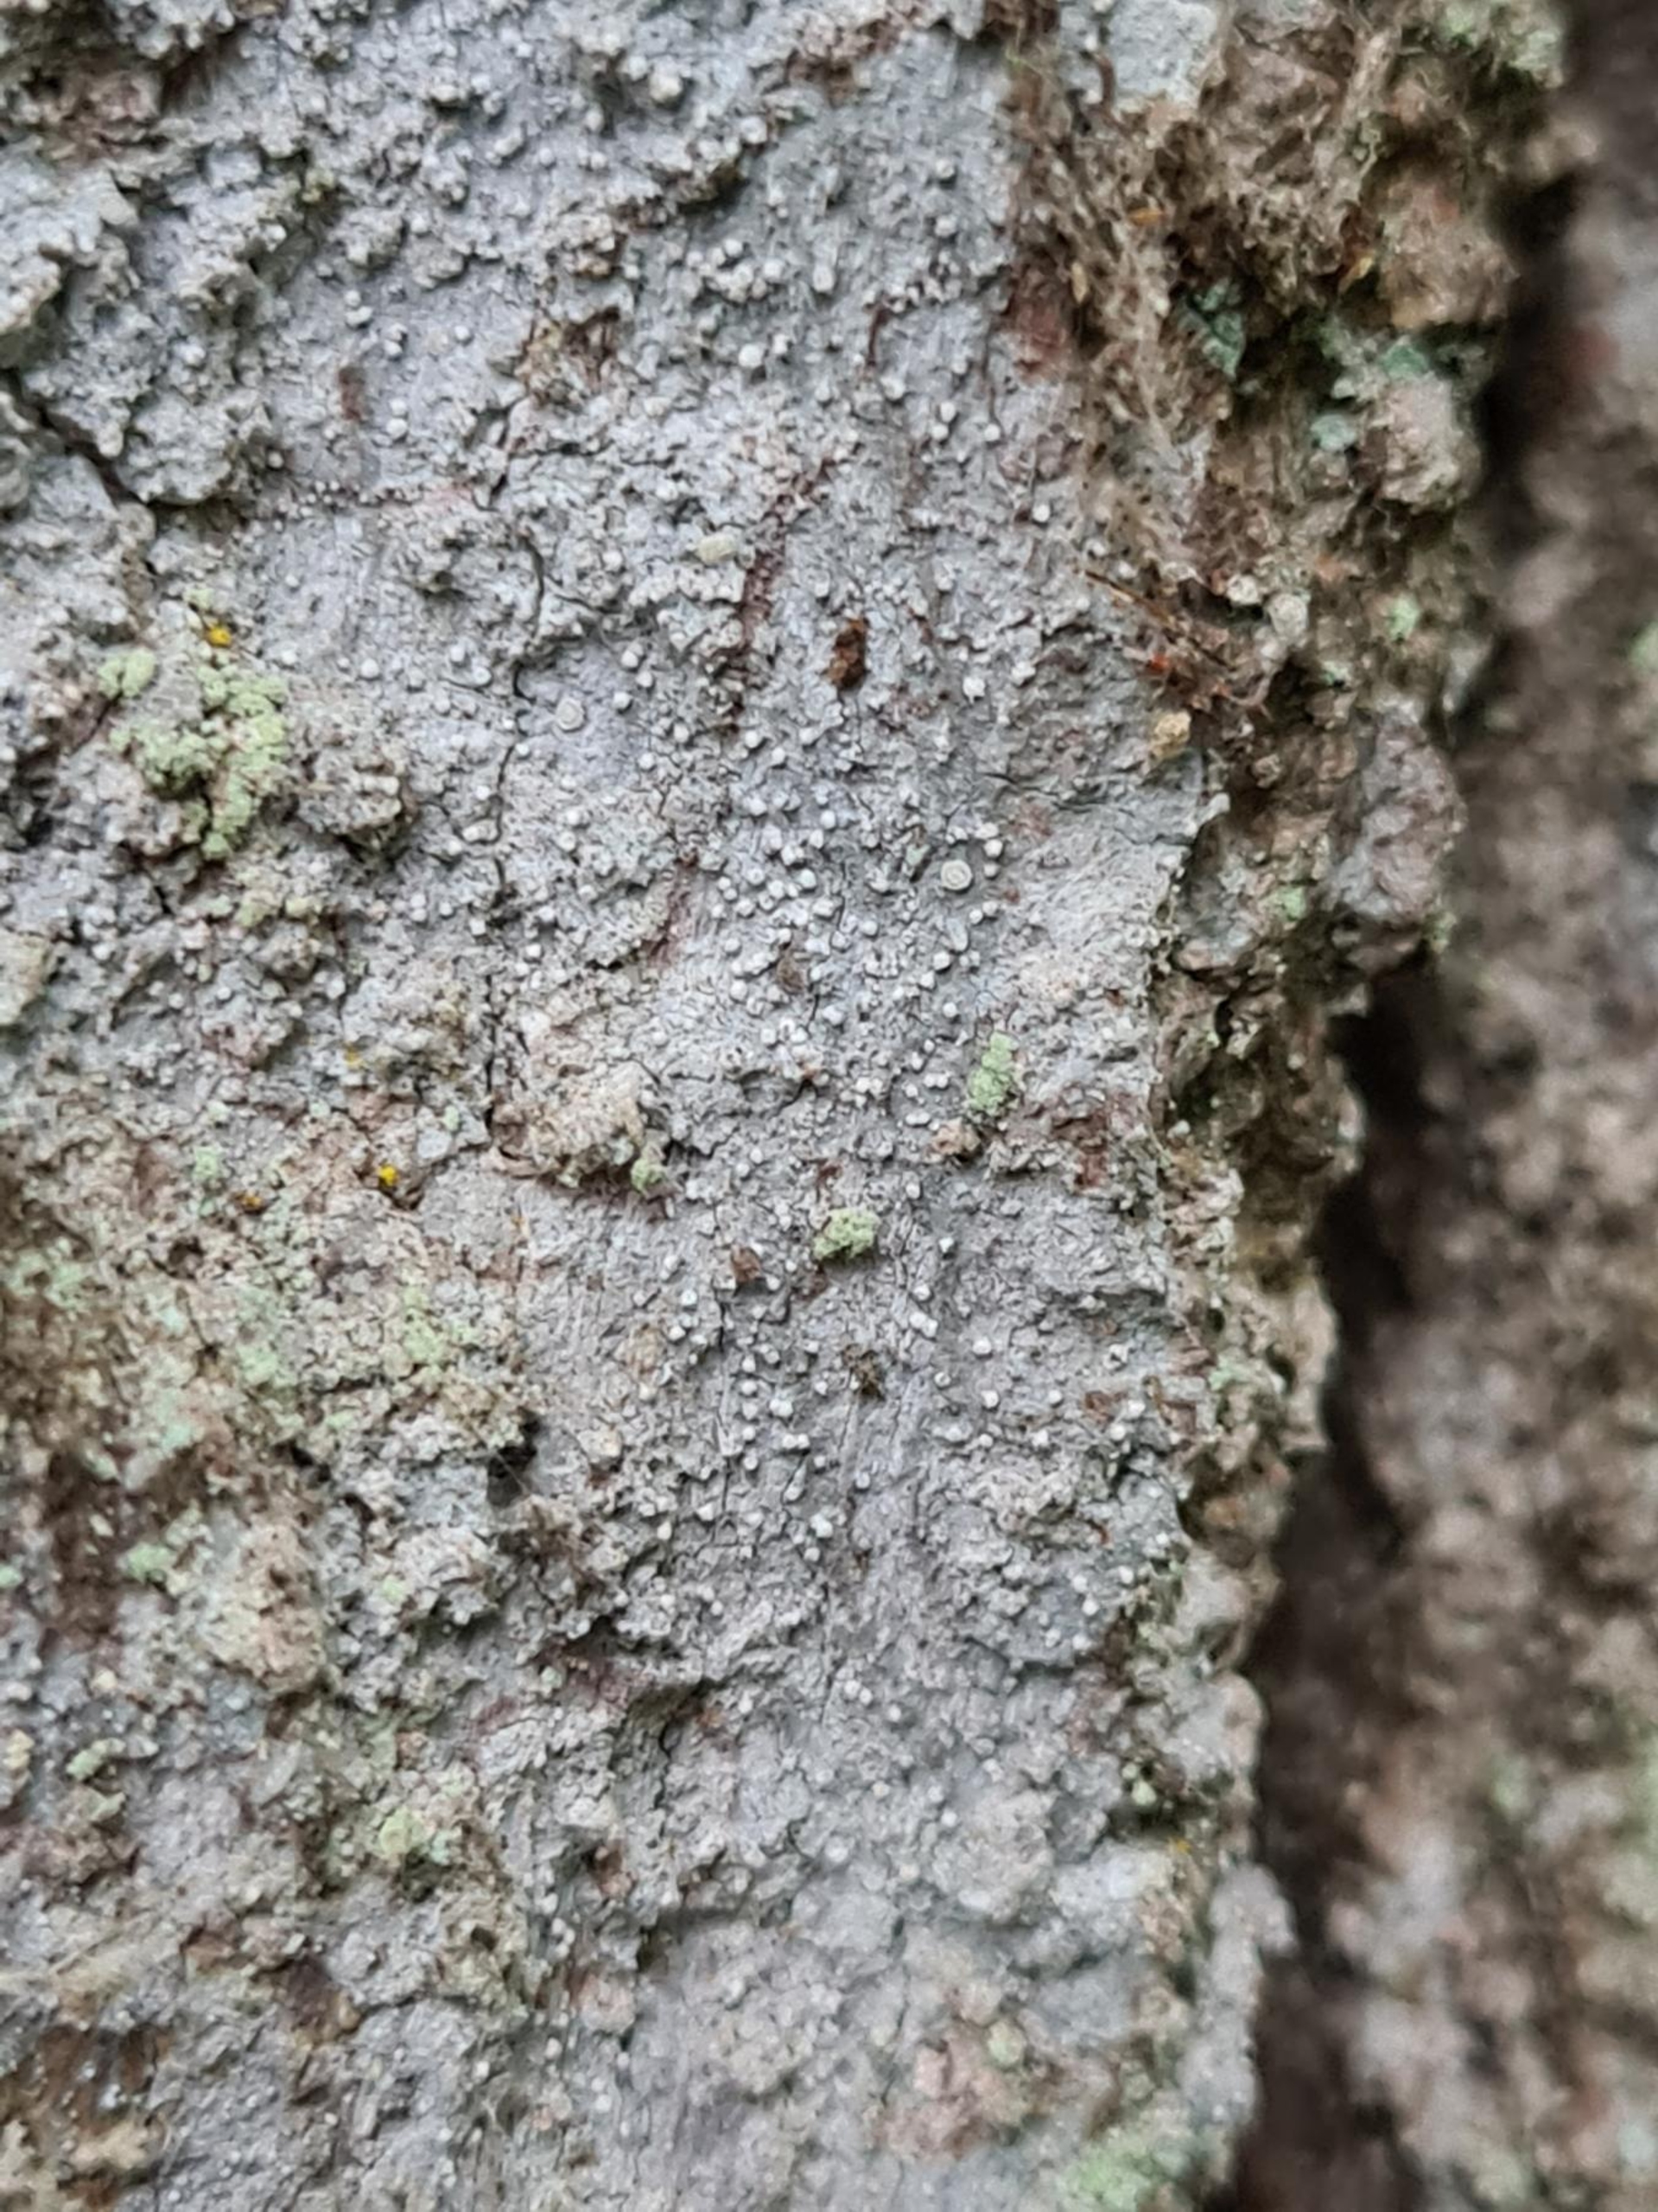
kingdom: Fungi
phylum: Ascomycota
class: Arthoniomycetes
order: Arthoniales
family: Roccellaceae
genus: Lecanactis
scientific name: Lecanactis abietina
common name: Grå dugskivelav
